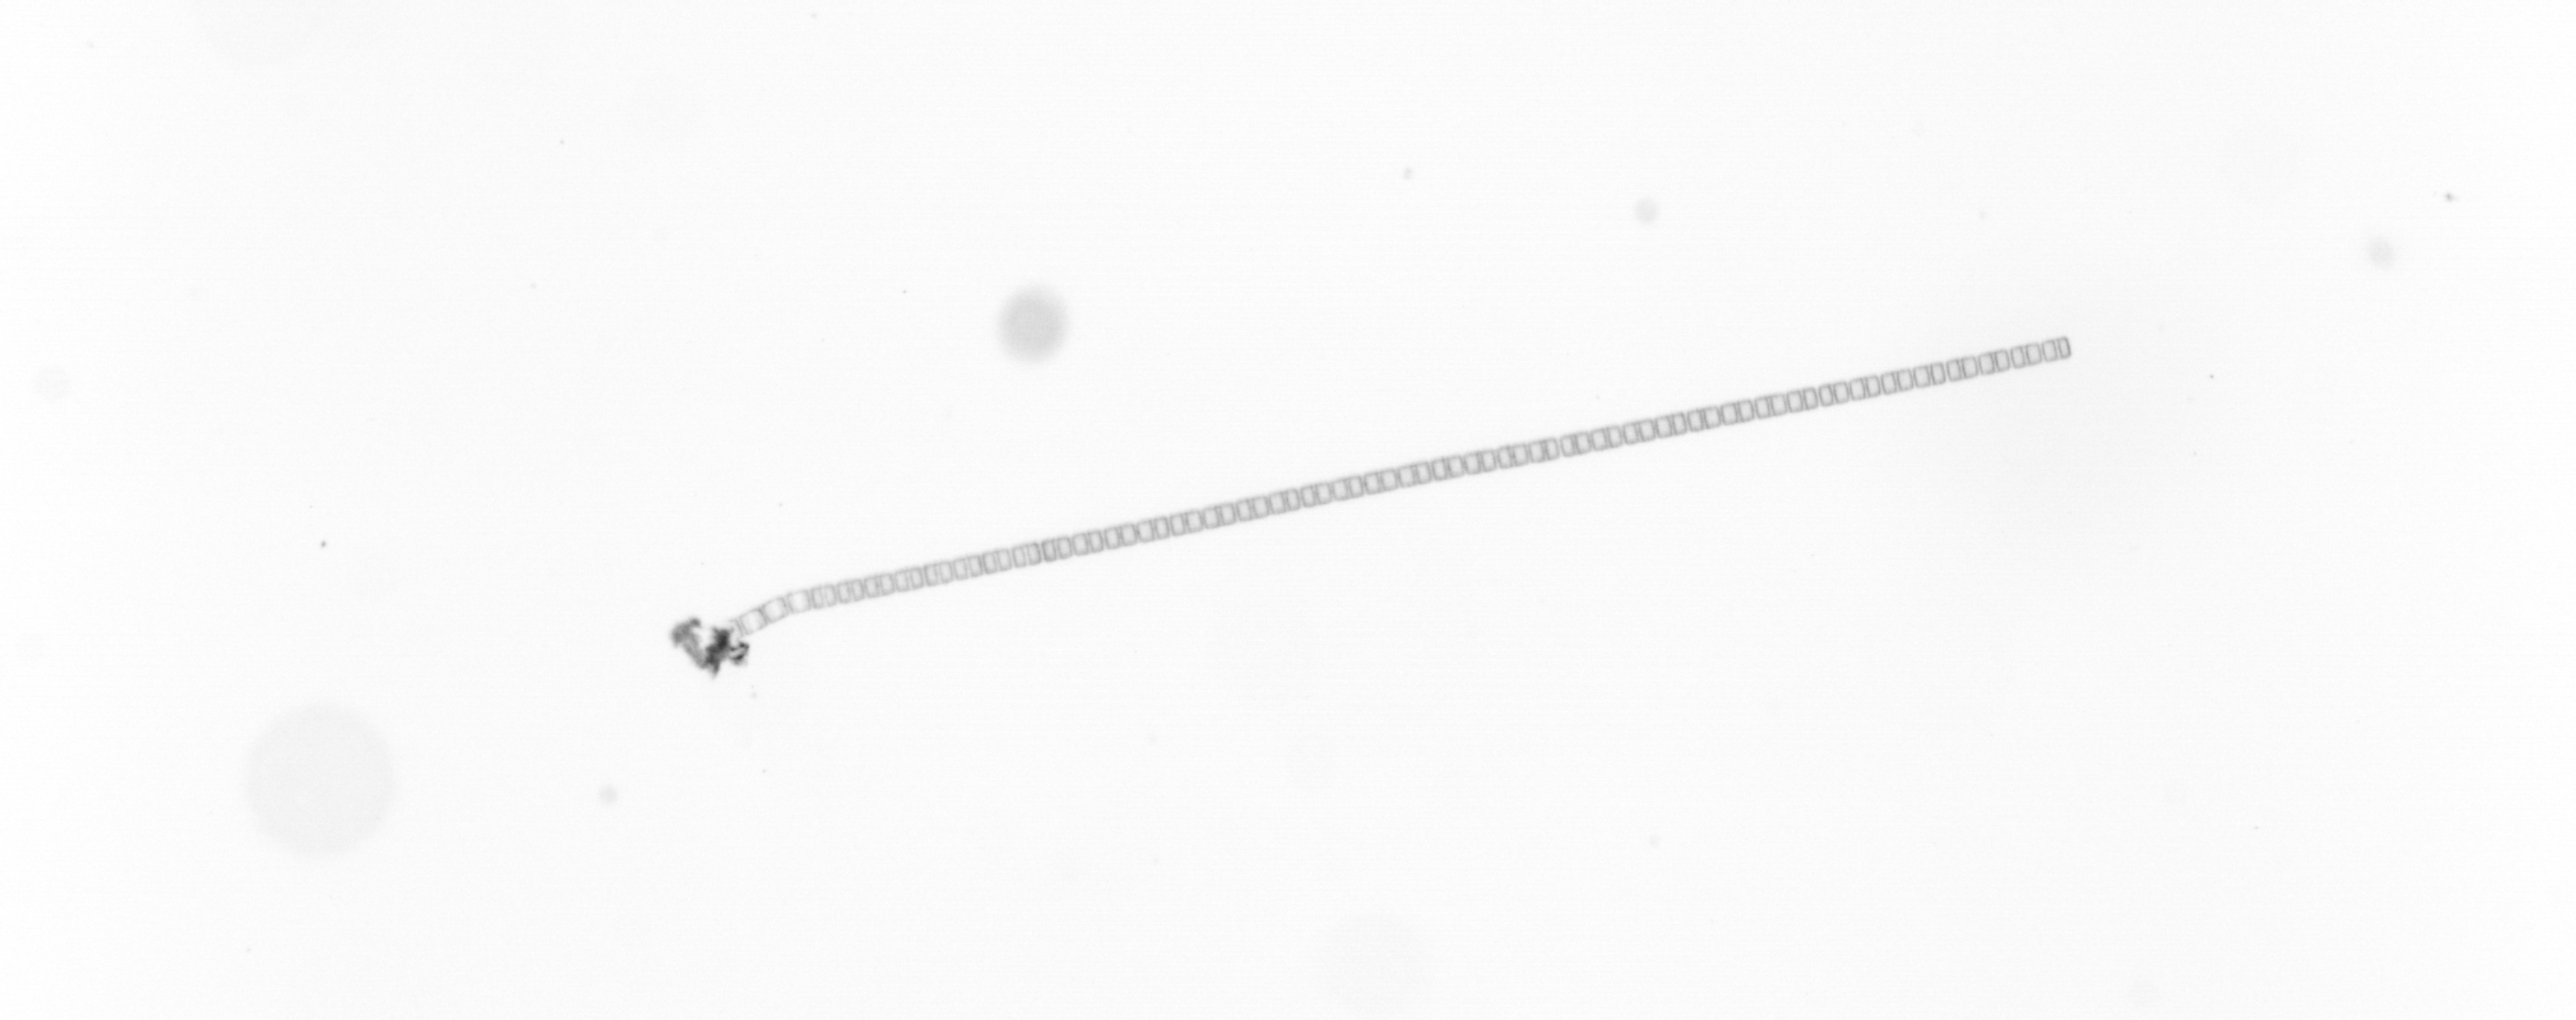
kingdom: Chromista
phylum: Ochrophyta
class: Bacillariophyceae
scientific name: Bacillariophyceae
